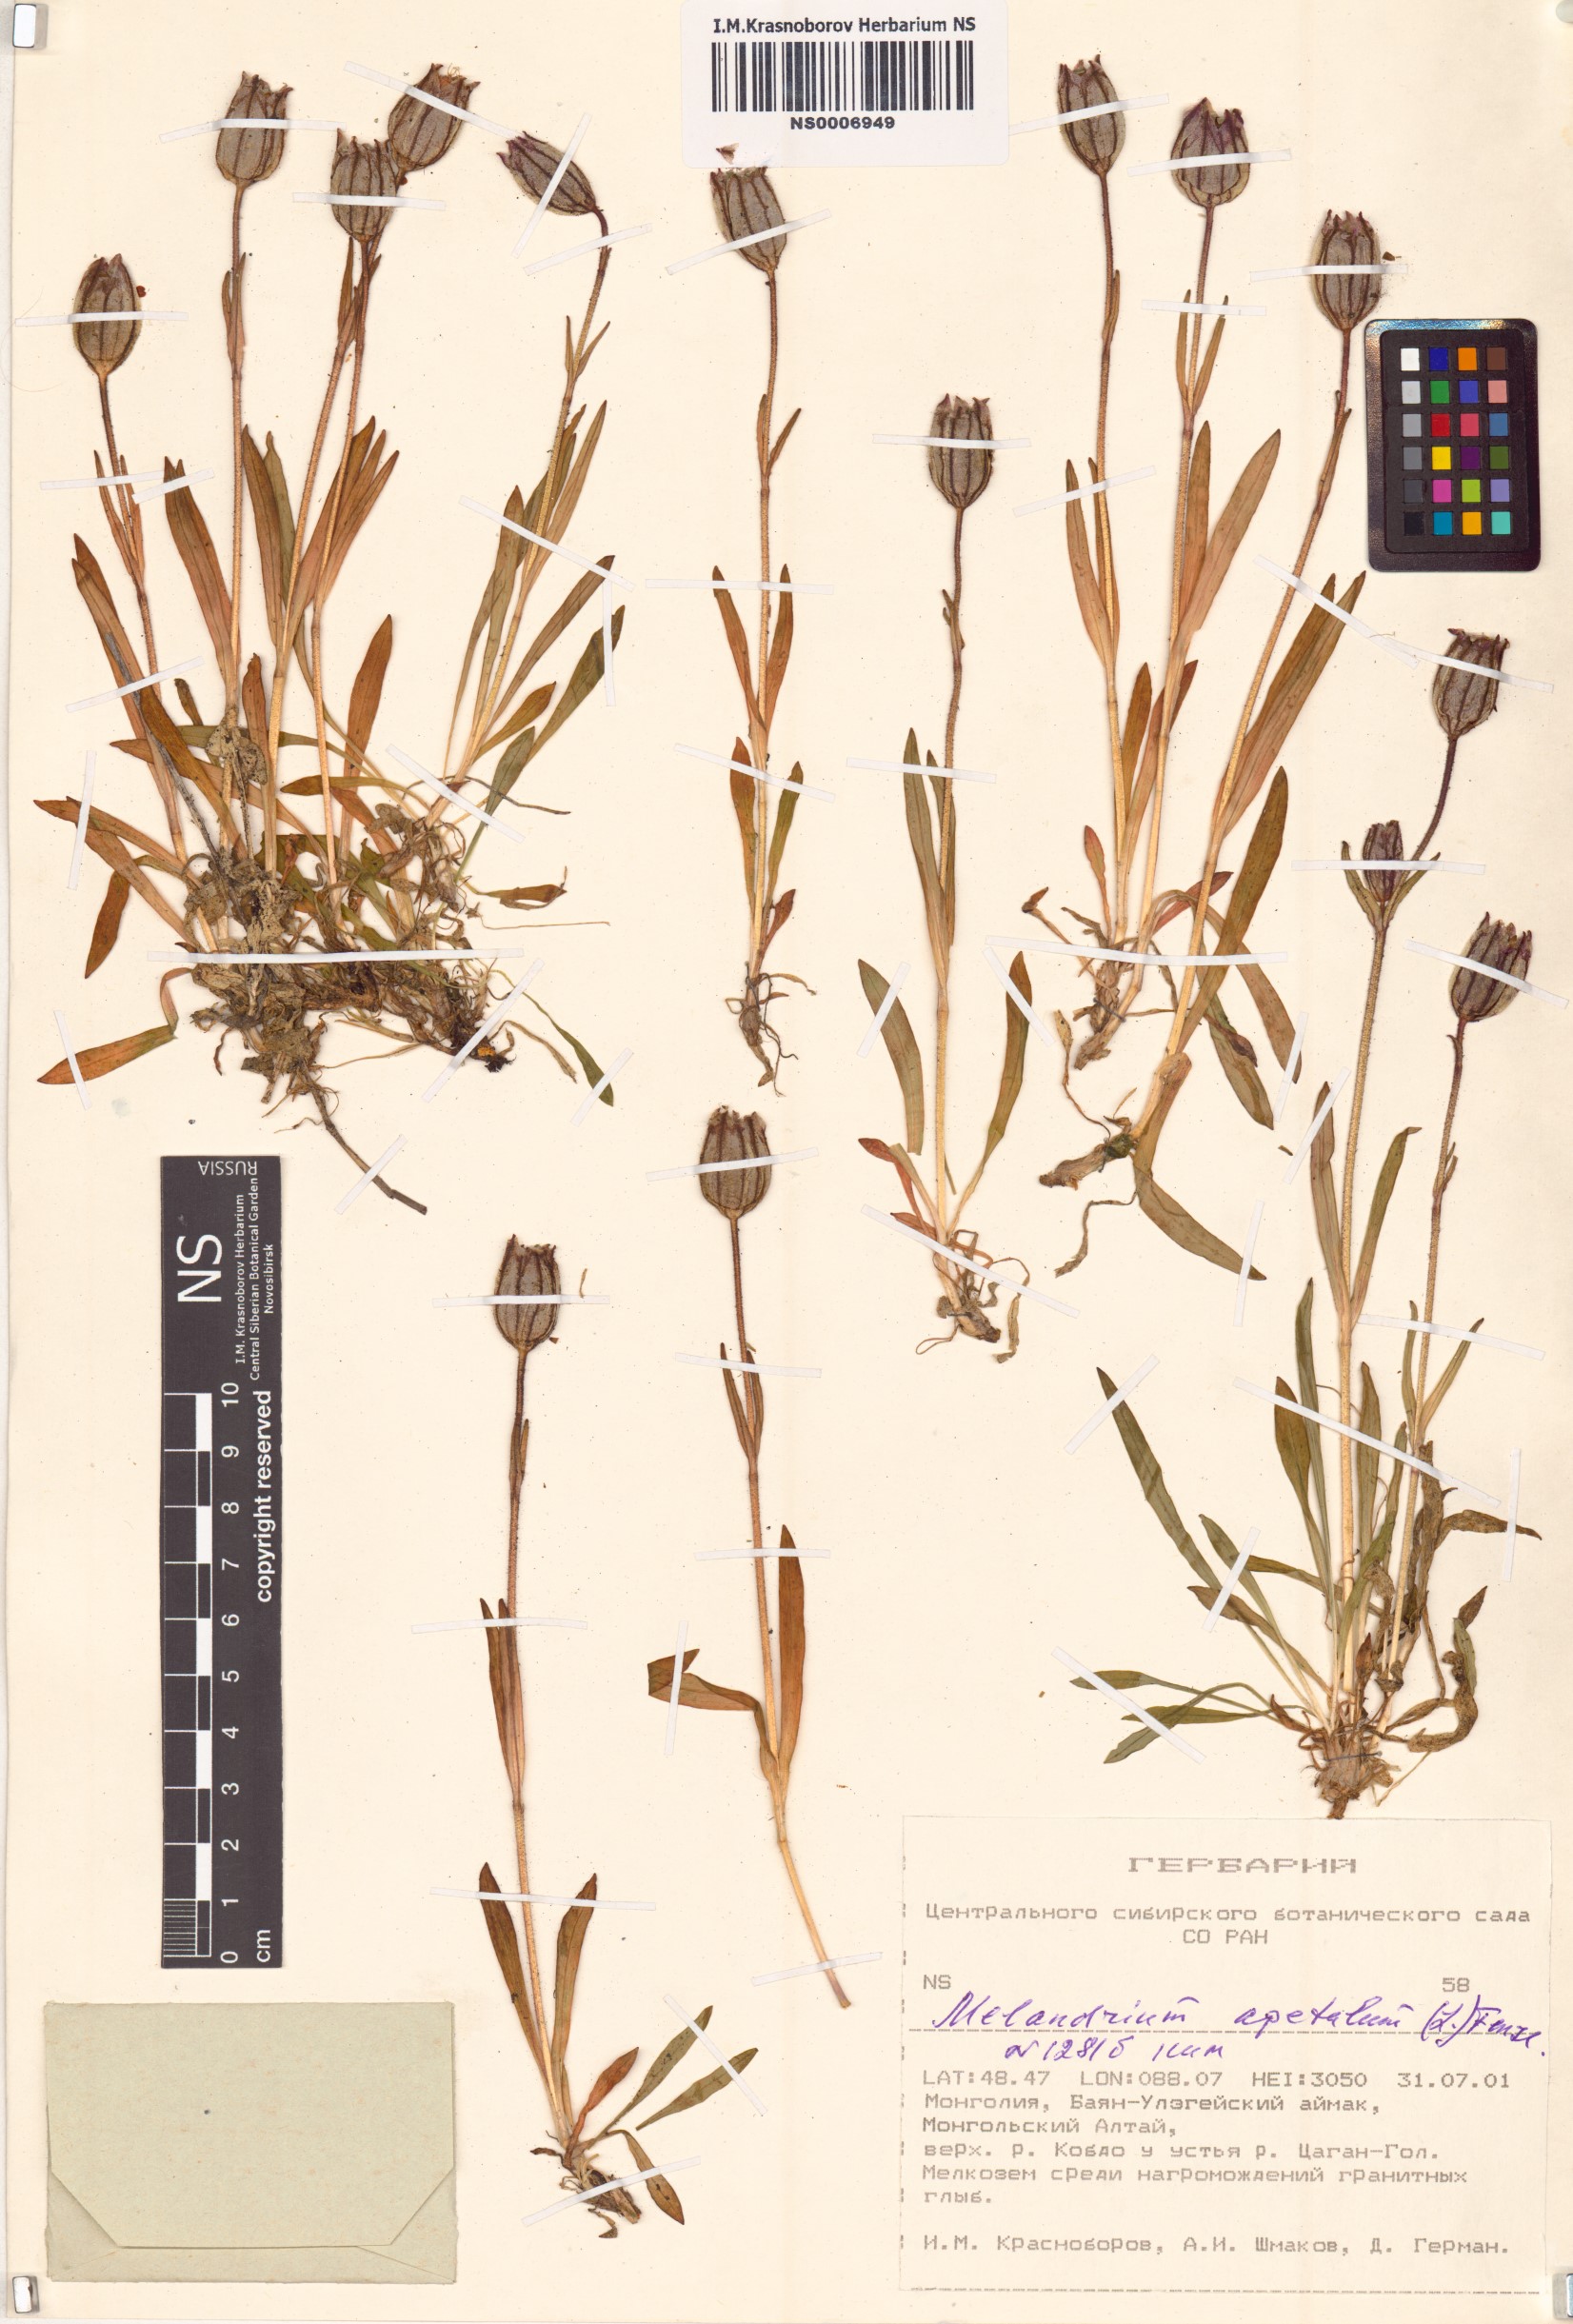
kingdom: Plantae
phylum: Tracheophyta
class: Magnoliopsida
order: Caryophyllales
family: Caryophyllaceae
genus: Silene
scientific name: Silene wahlbergella
